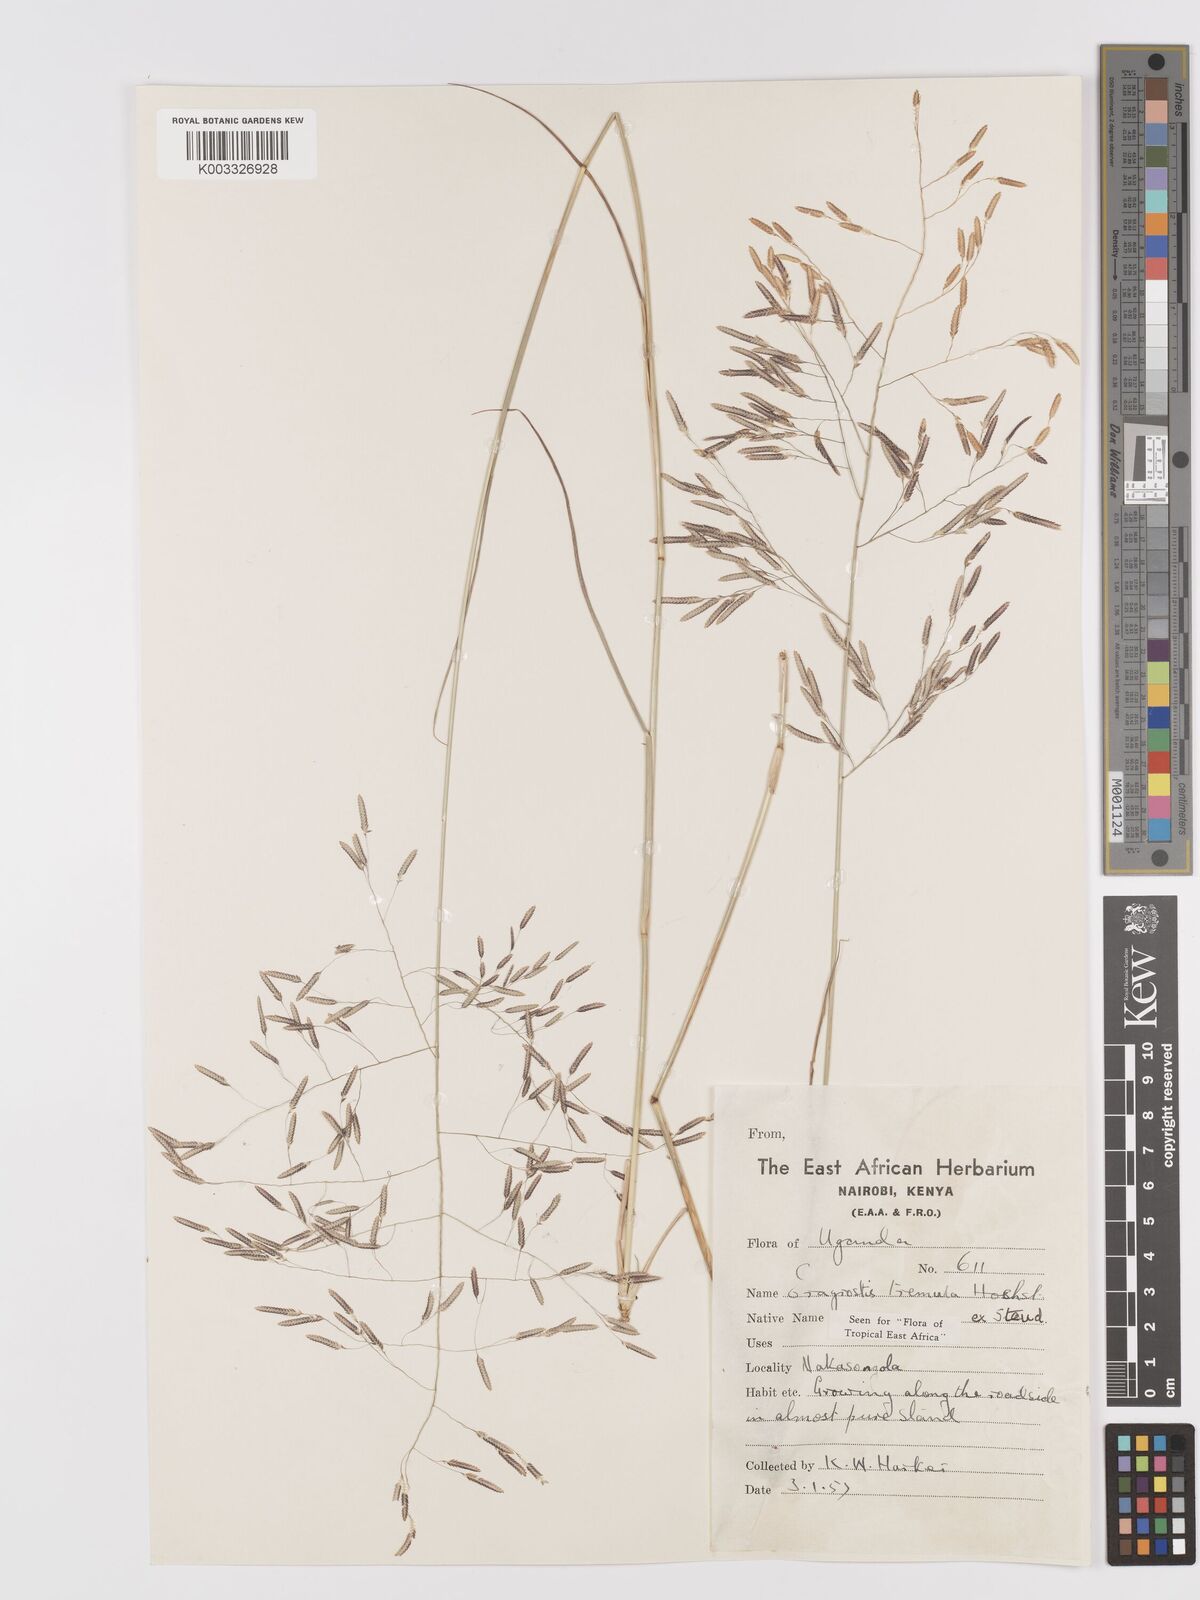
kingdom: Plantae
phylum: Tracheophyta
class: Liliopsida
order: Poales
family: Poaceae
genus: Eragrostis
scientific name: Eragrostis tremula
